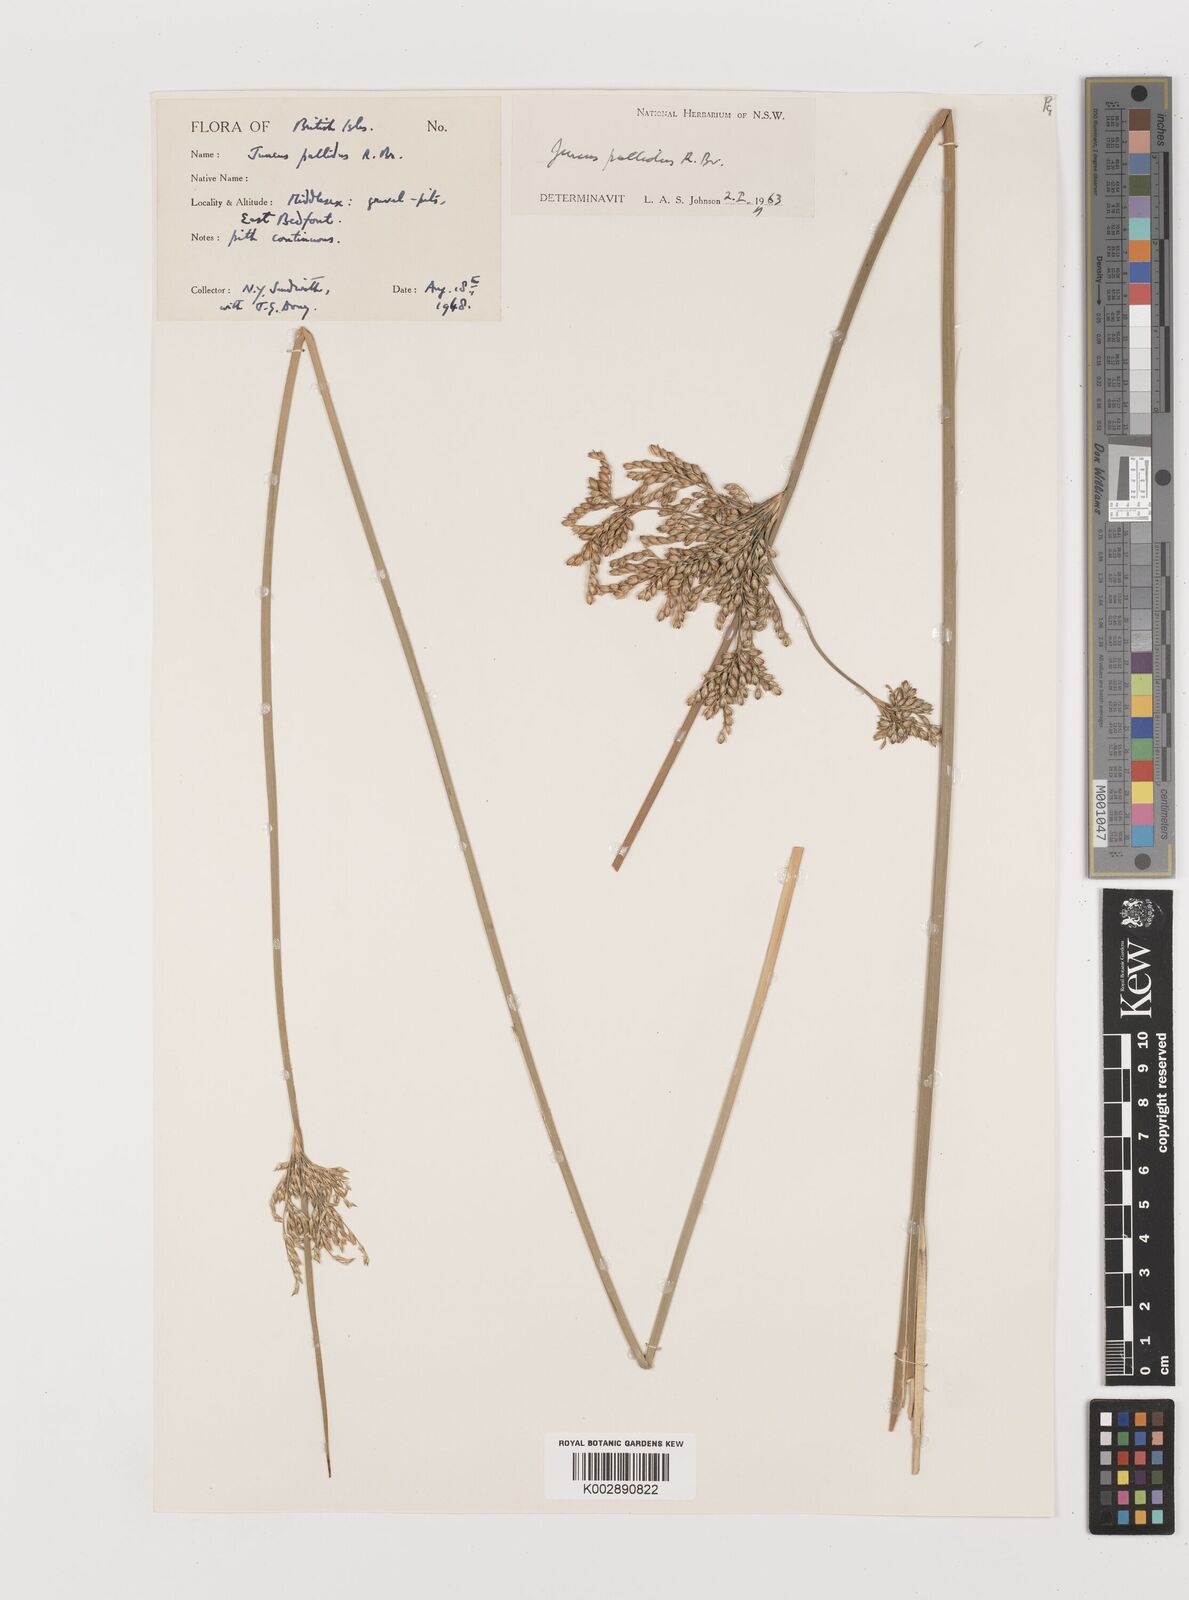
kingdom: Plantae
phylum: Tracheophyta
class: Liliopsida
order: Poales
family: Juncaceae
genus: Juncus
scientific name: Juncus pallidus
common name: Great soft-rush
